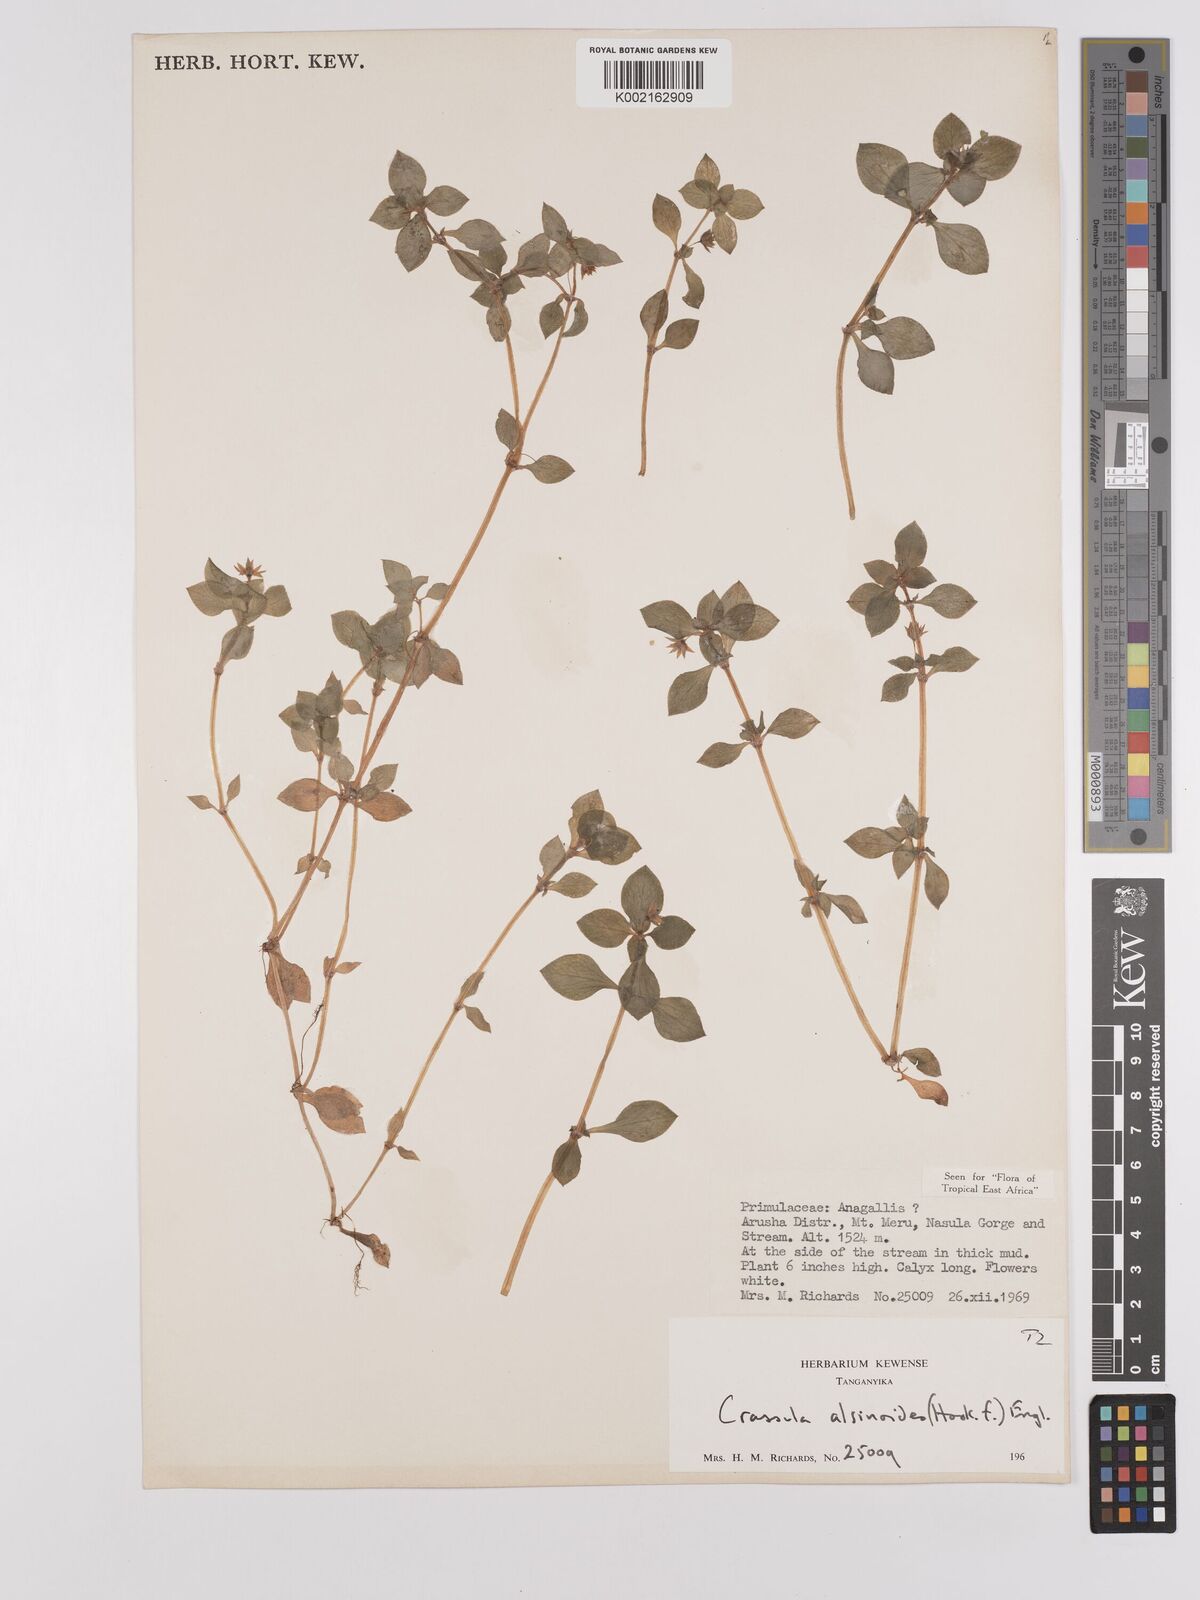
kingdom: Plantae
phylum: Tracheophyta
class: Magnoliopsida
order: Saxifragales
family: Crassulaceae
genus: Crassula
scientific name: Crassula alsinoides
